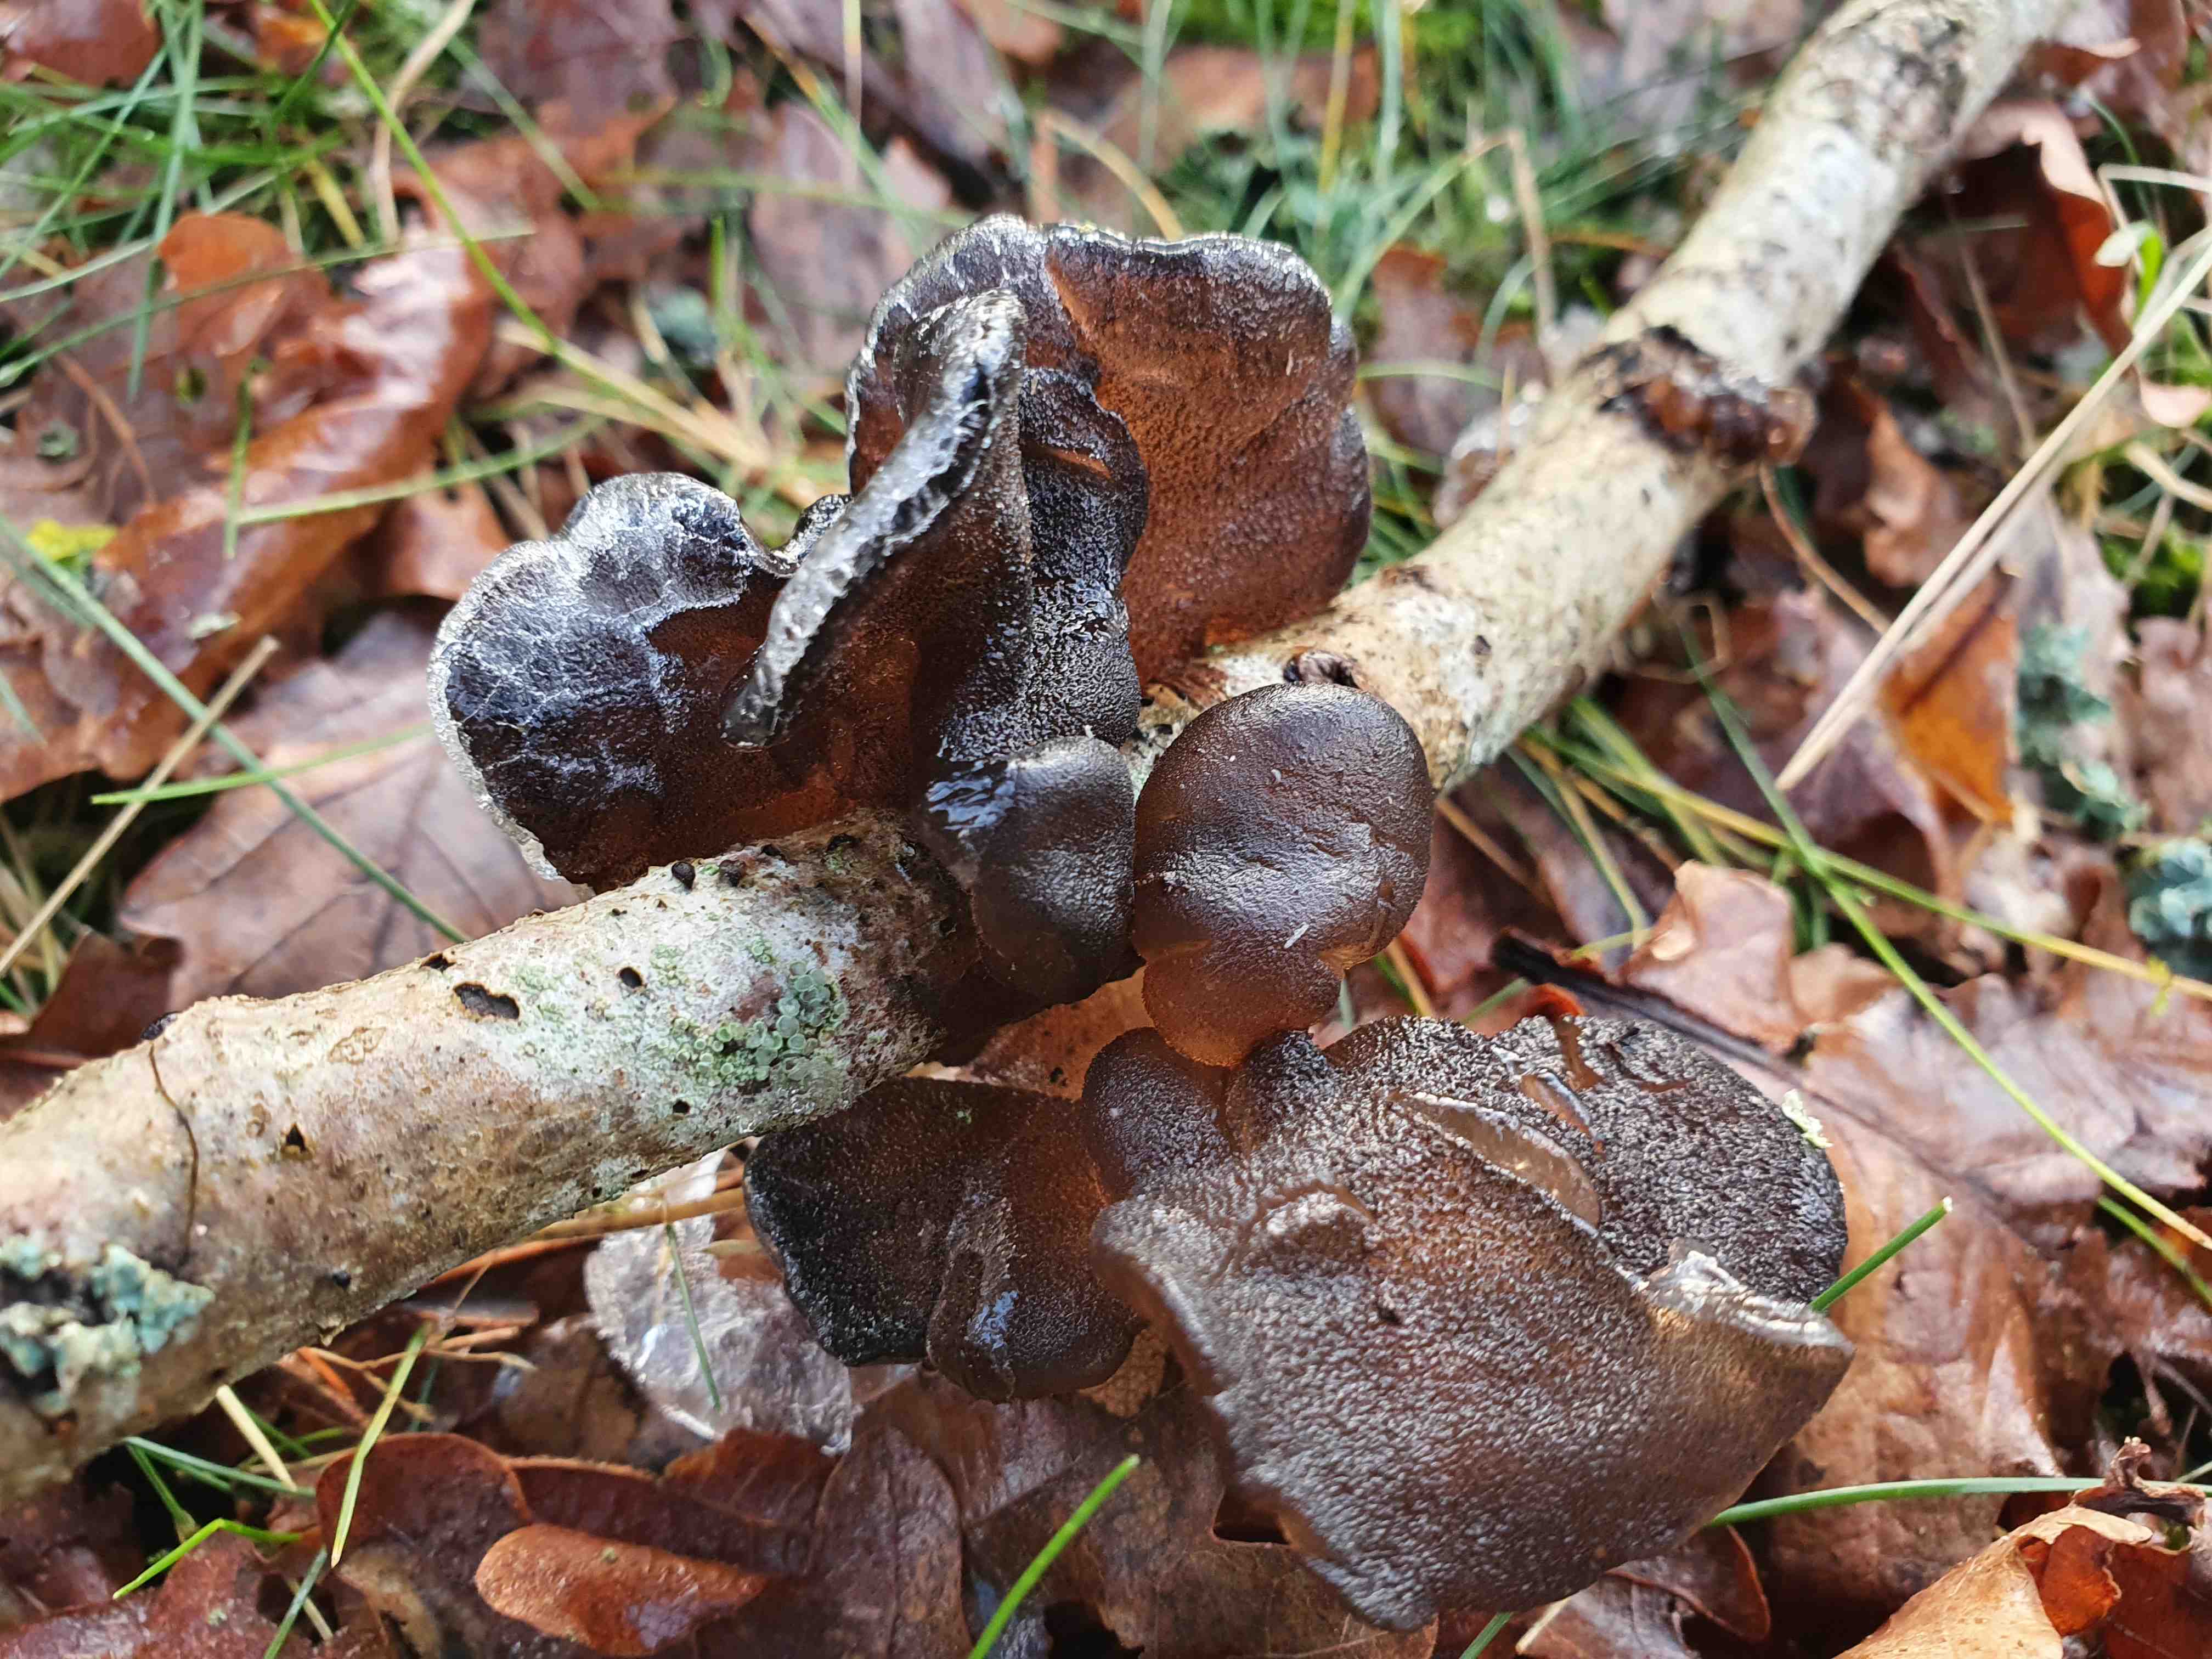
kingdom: Fungi
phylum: Basidiomycota
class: Agaricomycetes
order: Auriculariales
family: Auriculariaceae
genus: Exidia
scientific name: Exidia glandulosa
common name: ege-bævretop
